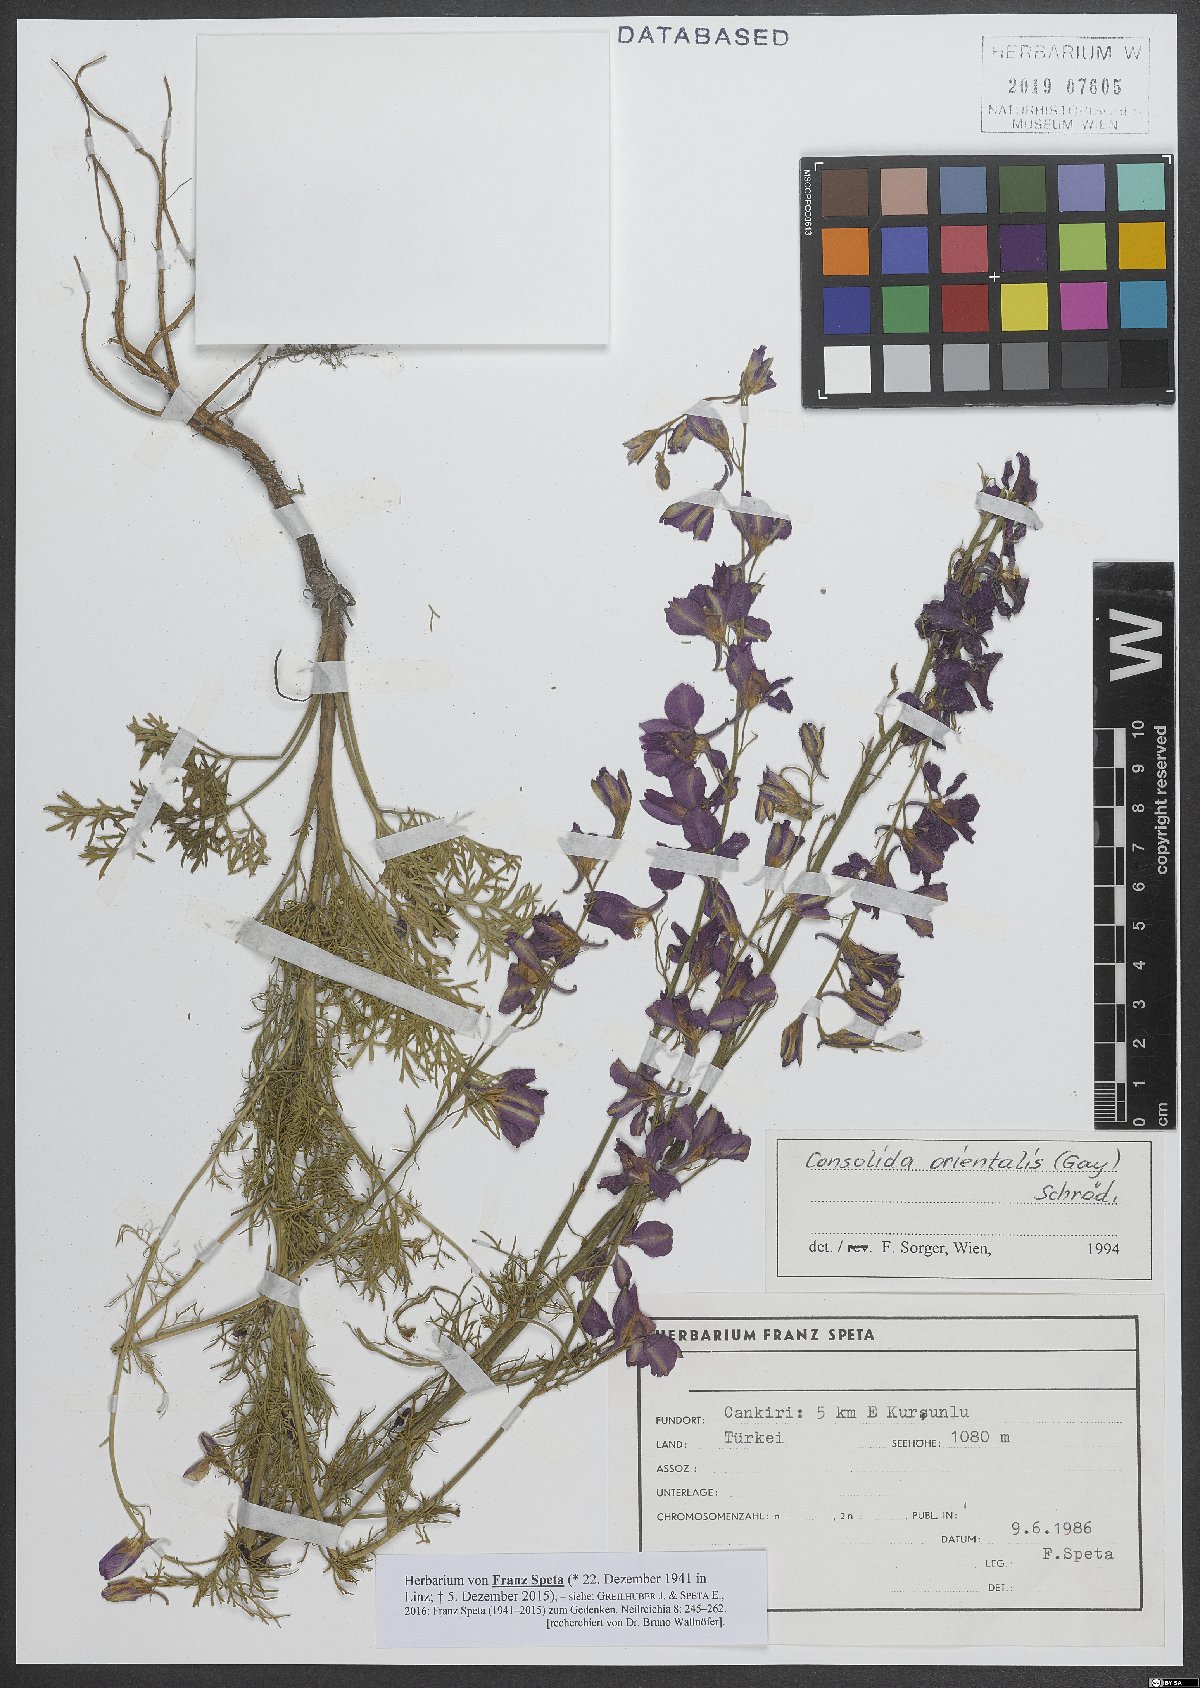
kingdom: Plantae
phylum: Tracheophyta
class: Magnoliopsida
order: Ranunculales
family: Ranunculaceae
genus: Delphinium
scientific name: Delphinium hispanicum
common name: Oriental knight's-spur
